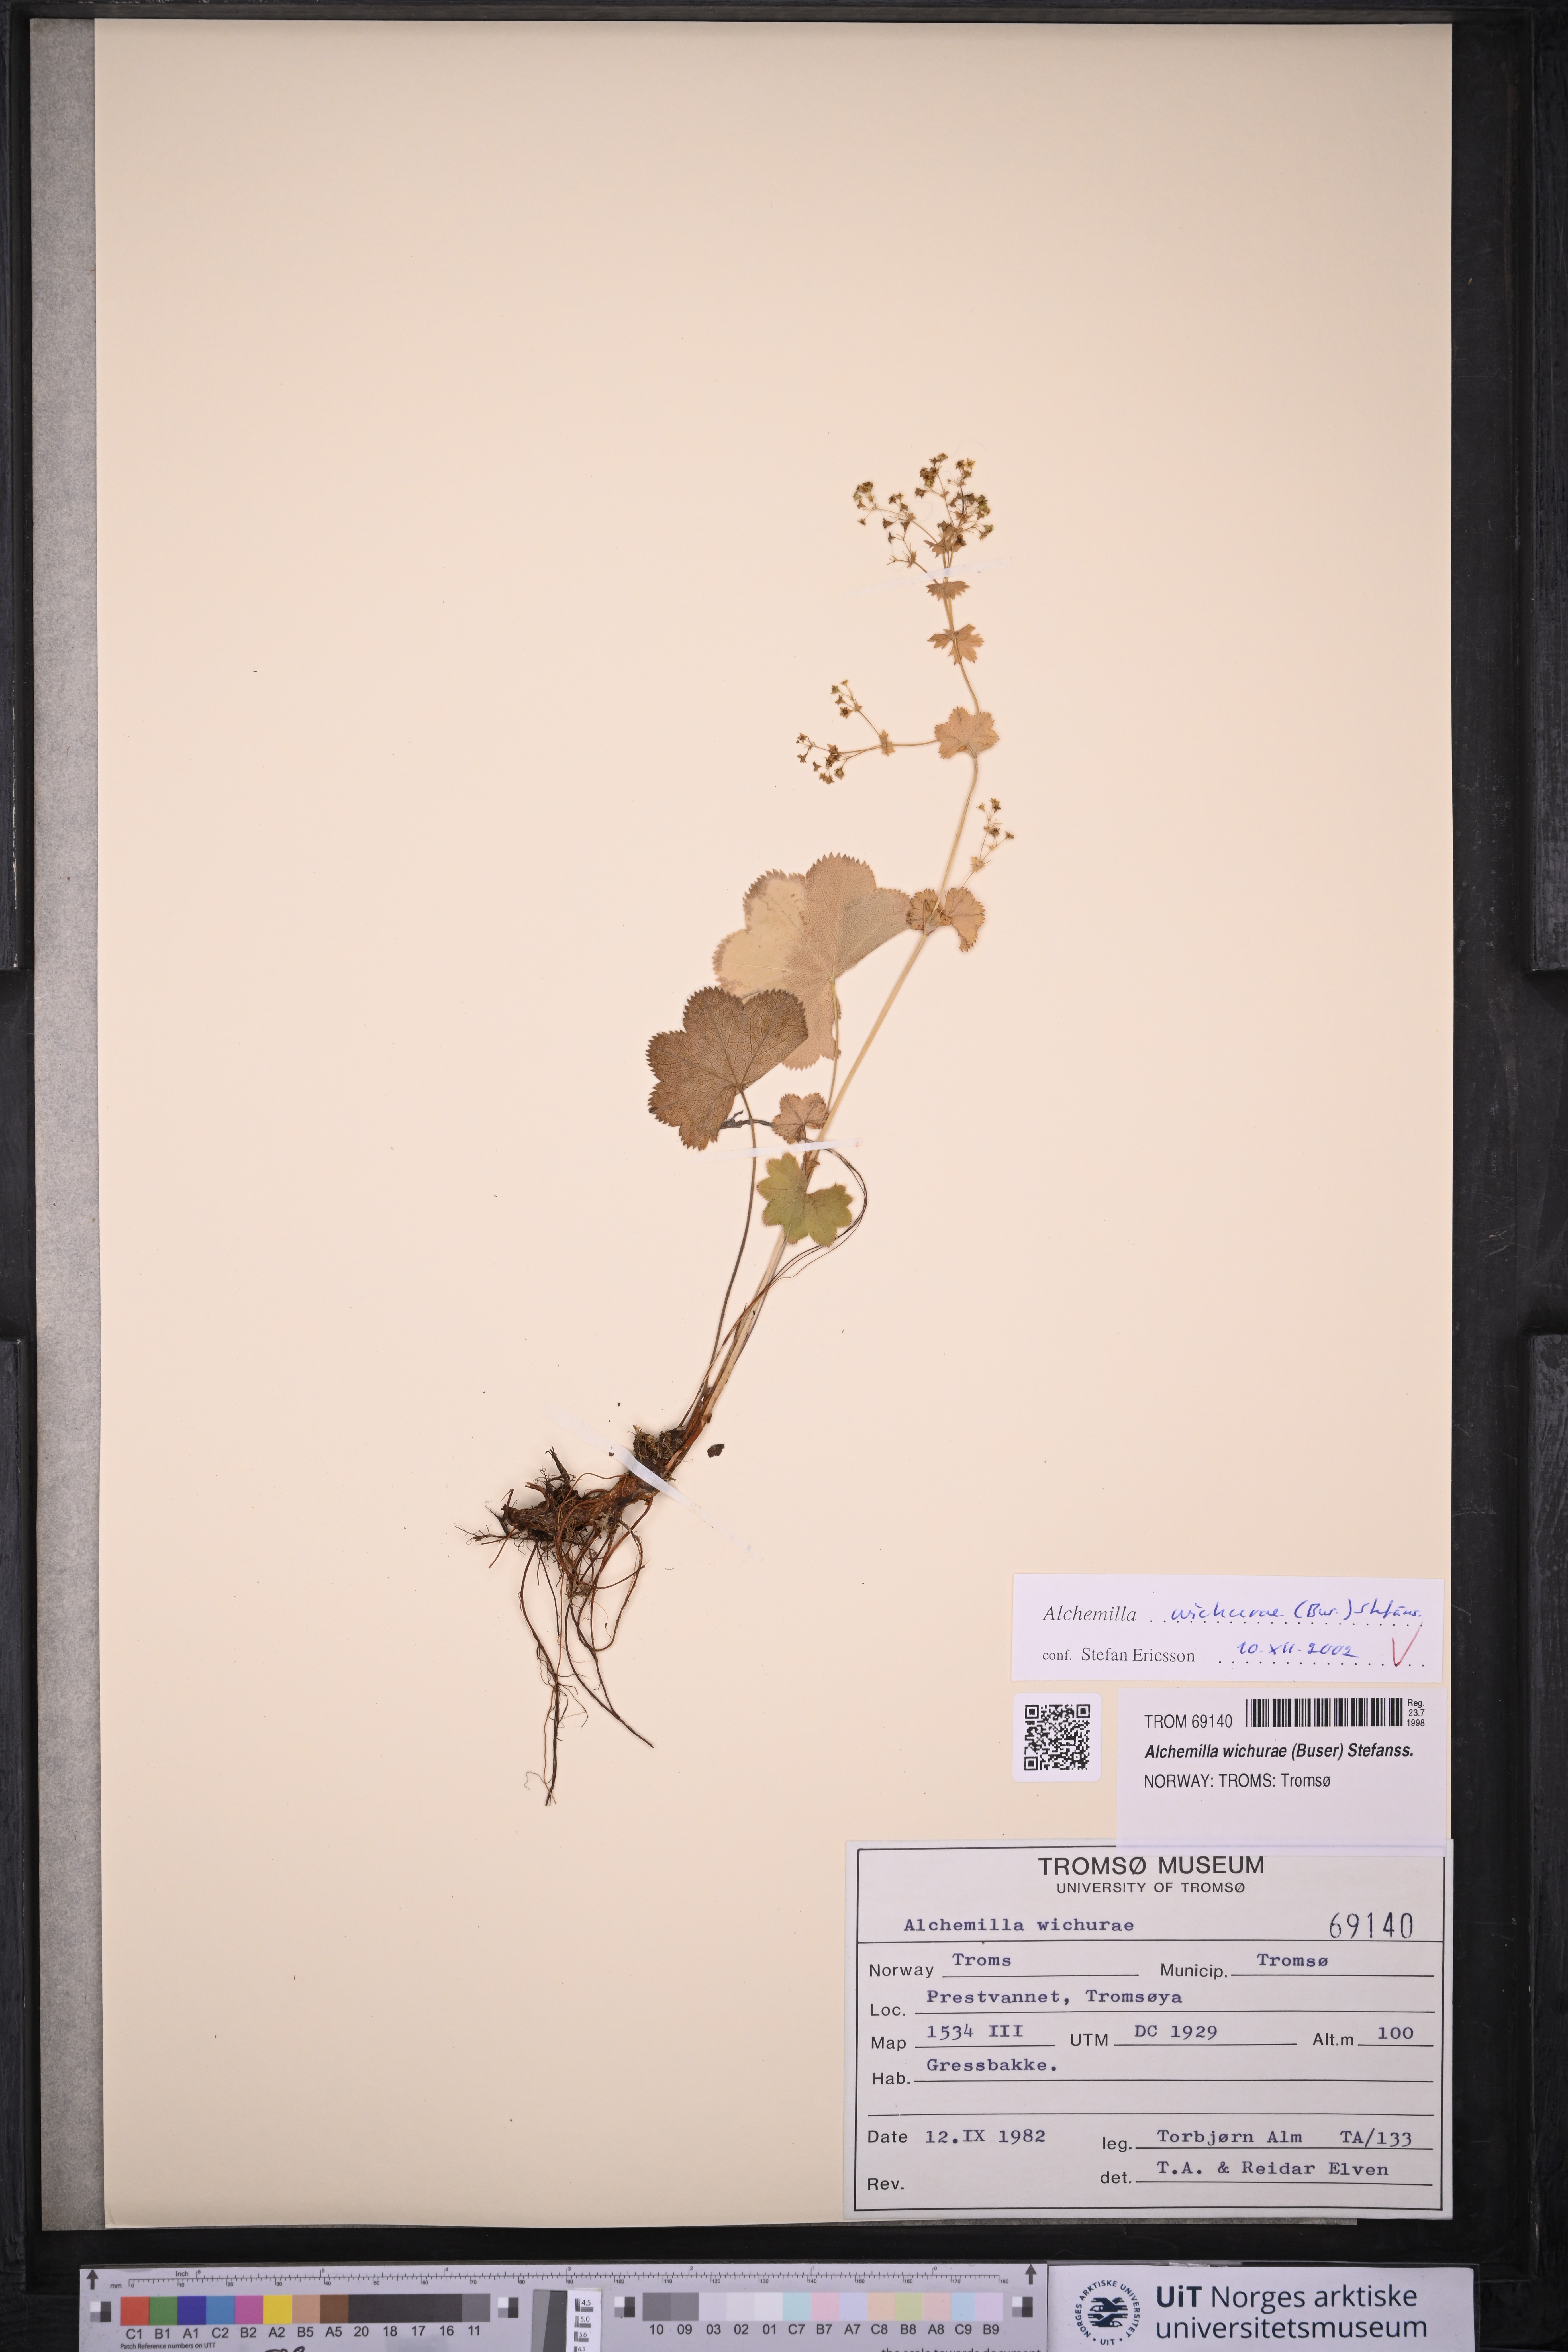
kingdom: Plantae
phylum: Tracheophyta
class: Magnoliopsida
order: Rosales
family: Rosaceae
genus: Alchemilla
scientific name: Alchemilla wichurae
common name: Rock lady's mantle
